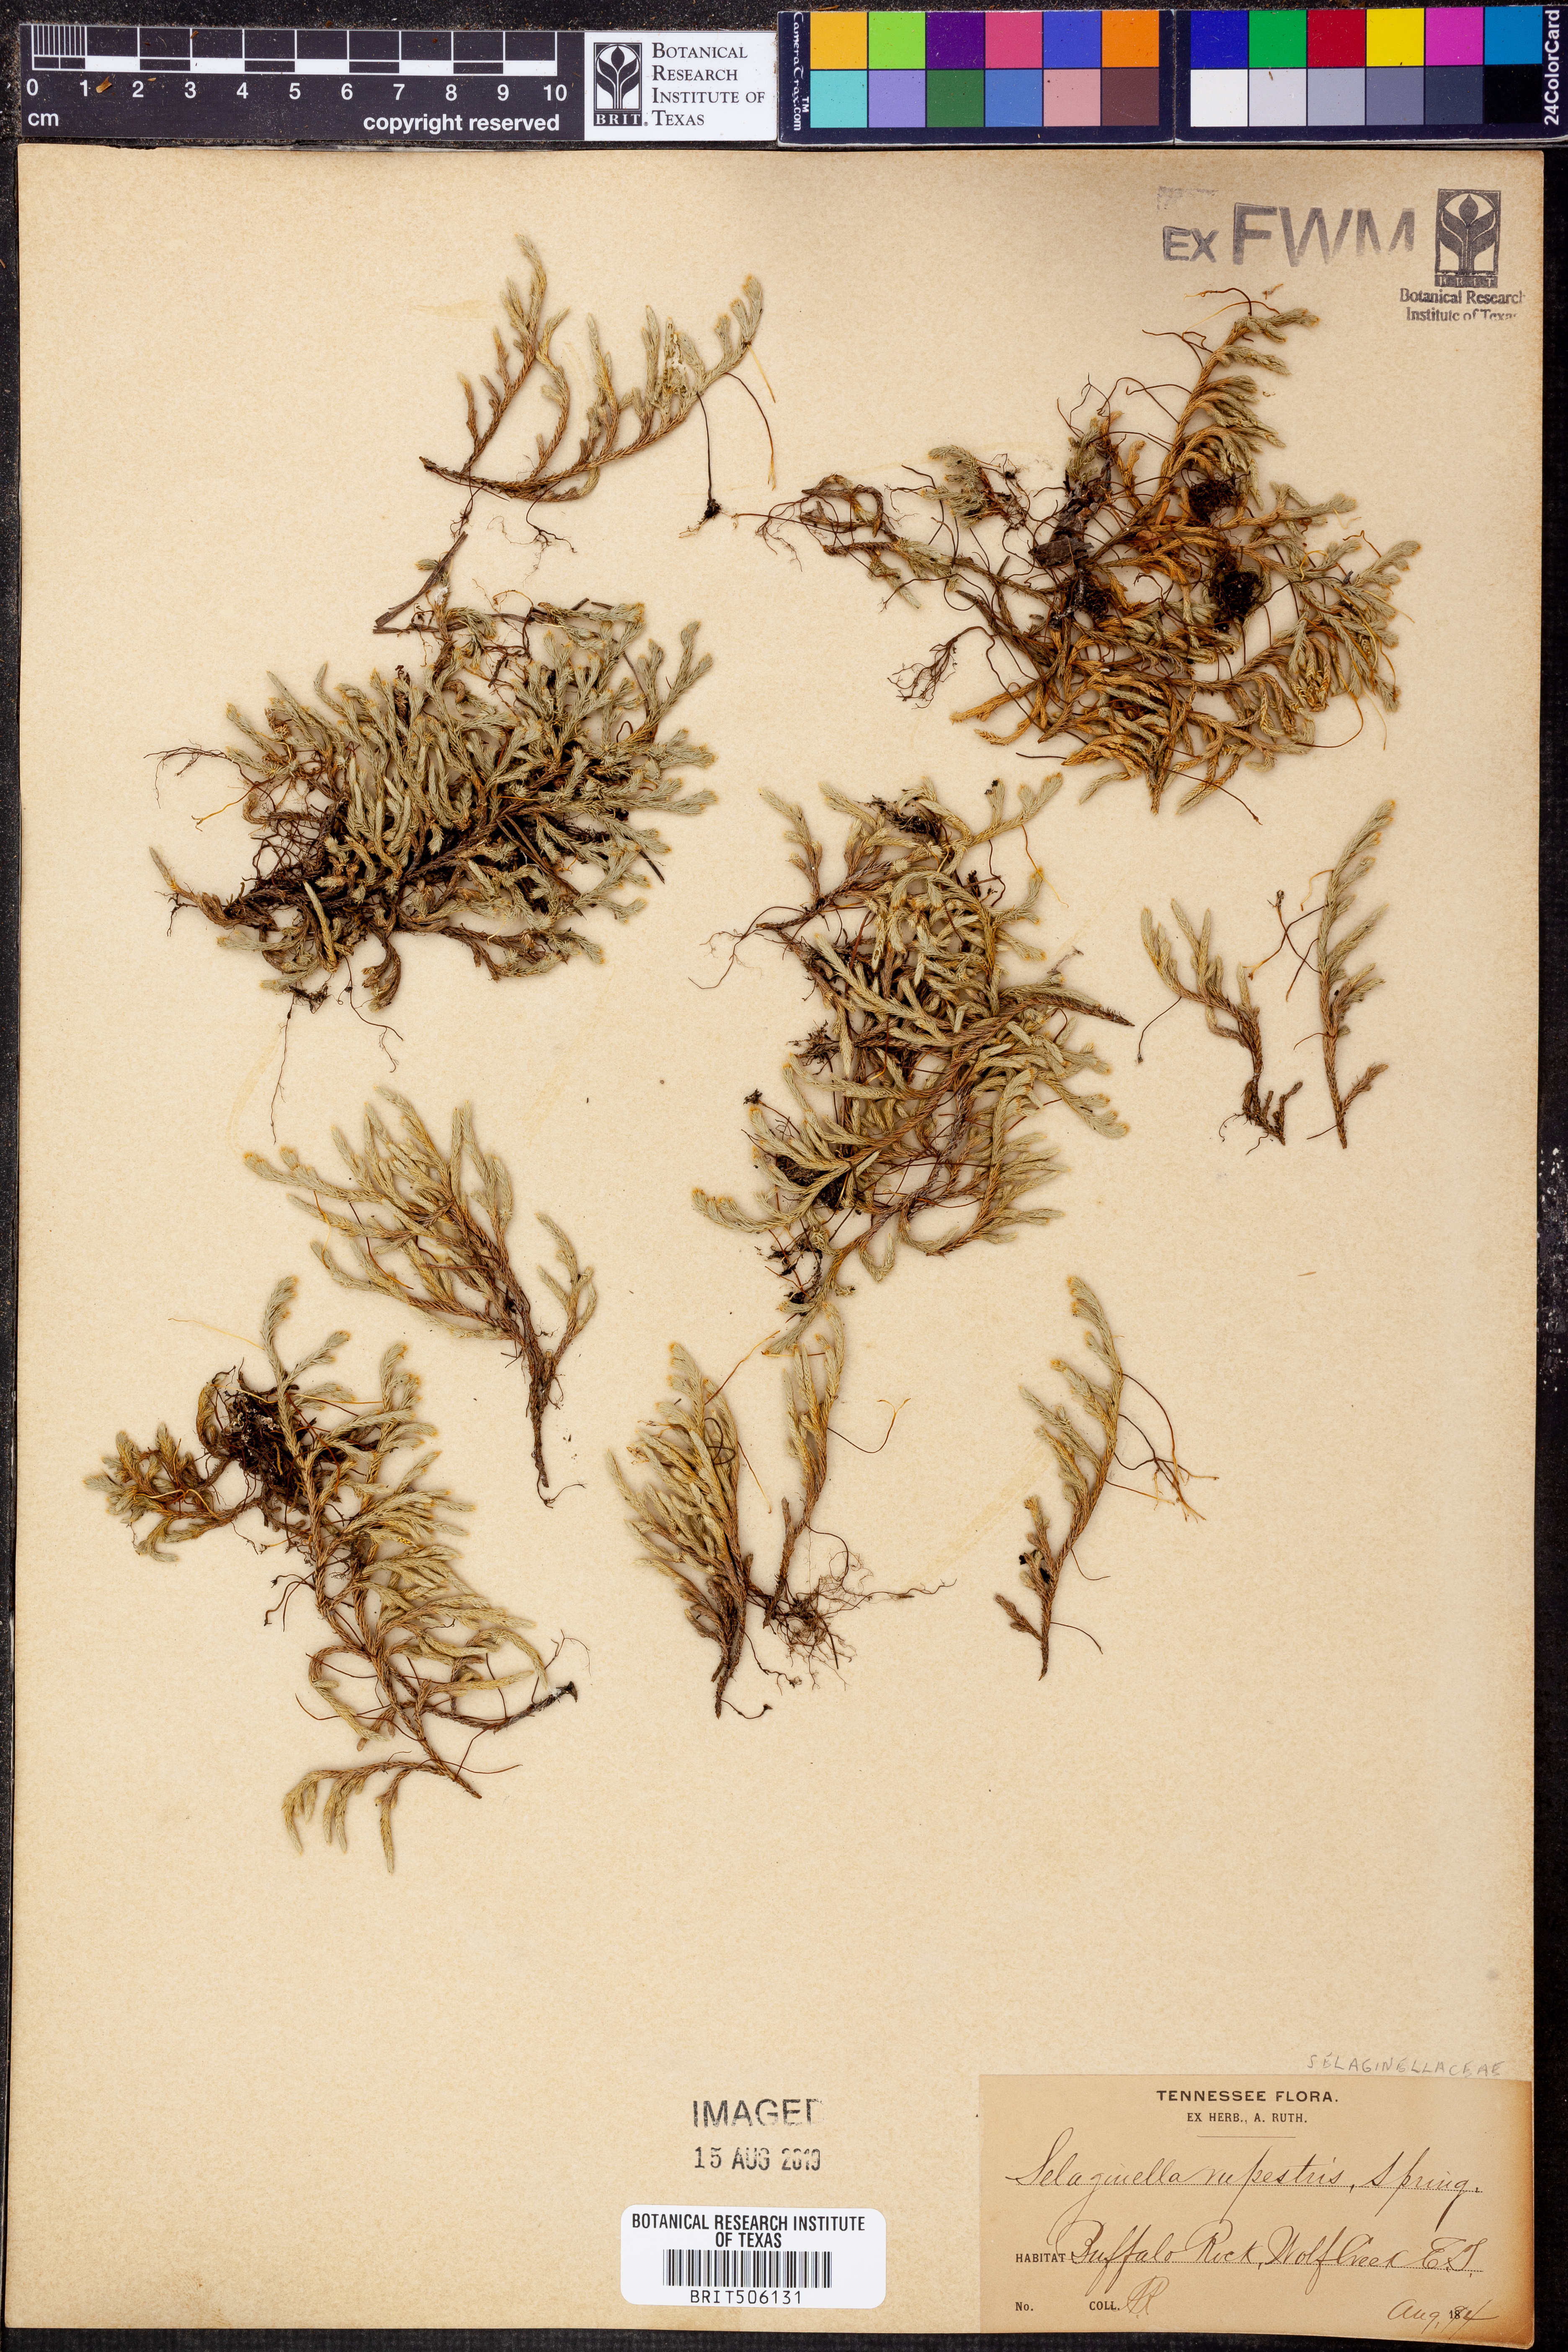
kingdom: Plantae
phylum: Tracheophyta
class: Lycopodiopsida
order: Selaginellales
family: Selaginellaceae
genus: Selaginella
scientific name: Selaginella rupestris
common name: Dwarf spikemoss
